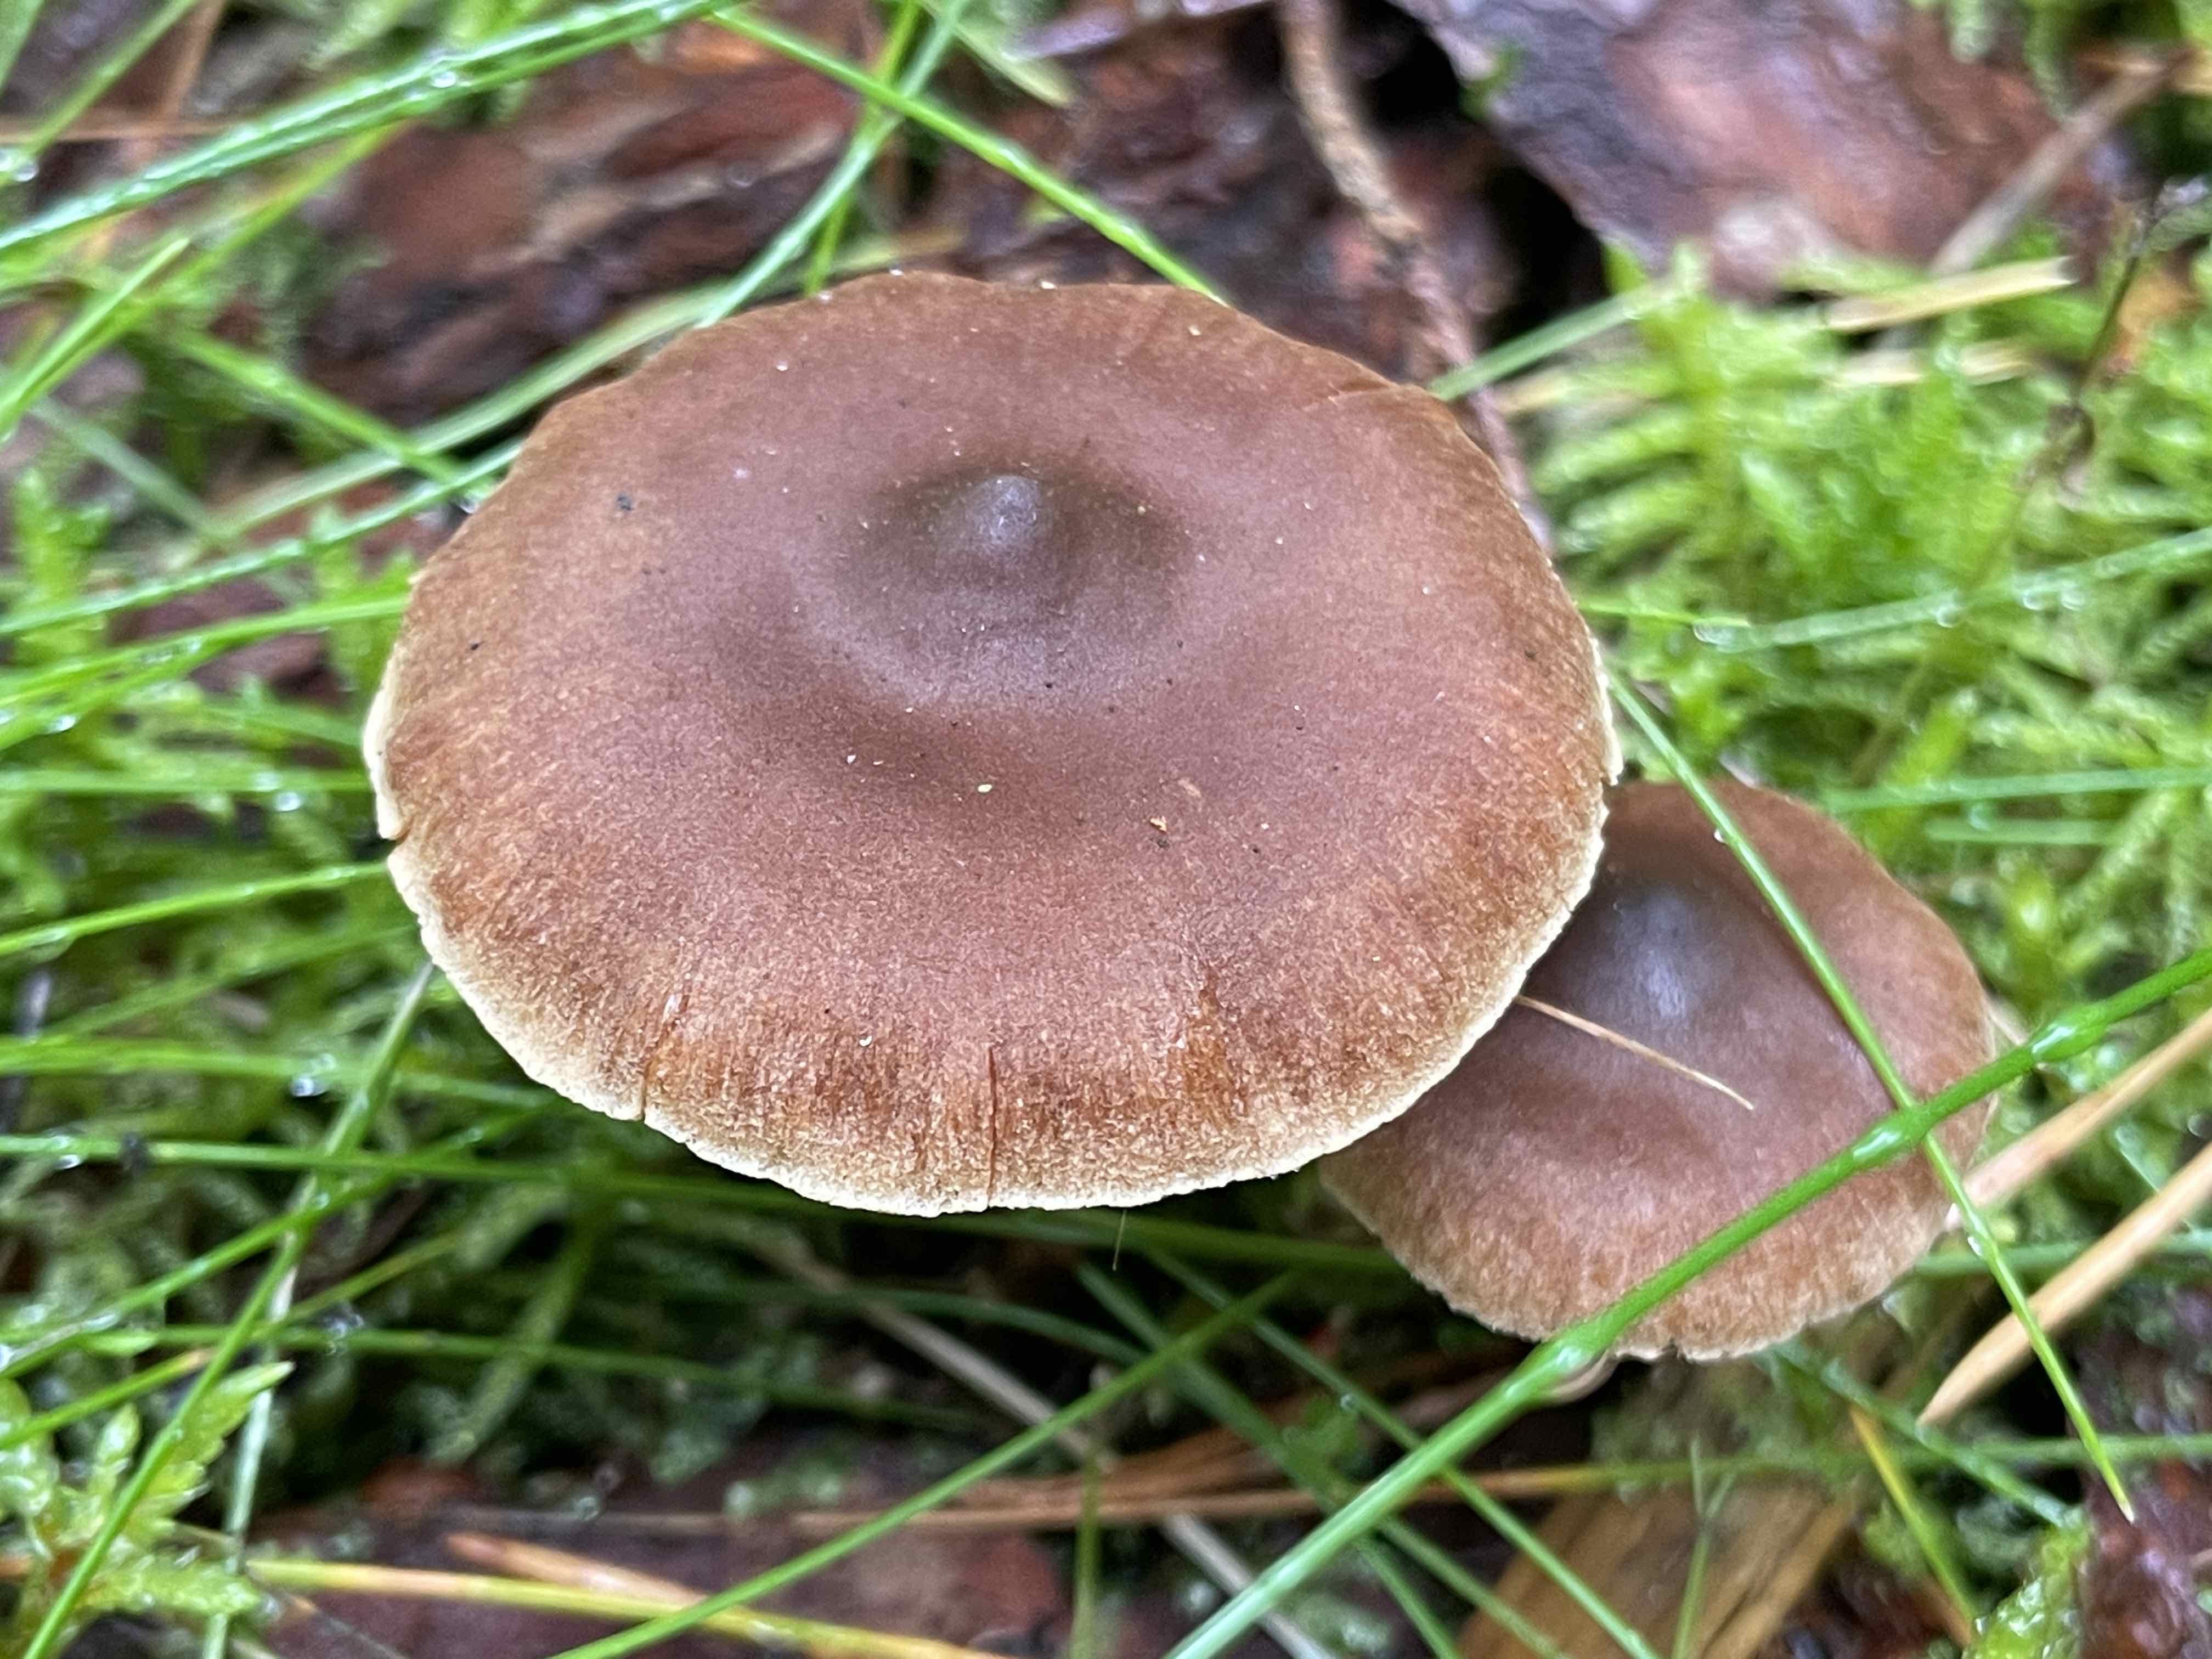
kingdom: Fungi
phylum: Basidiomycota
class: Agaricomycetes
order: Agaricales
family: Cortinariaceae
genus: Cortinarius
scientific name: Cortinarius
